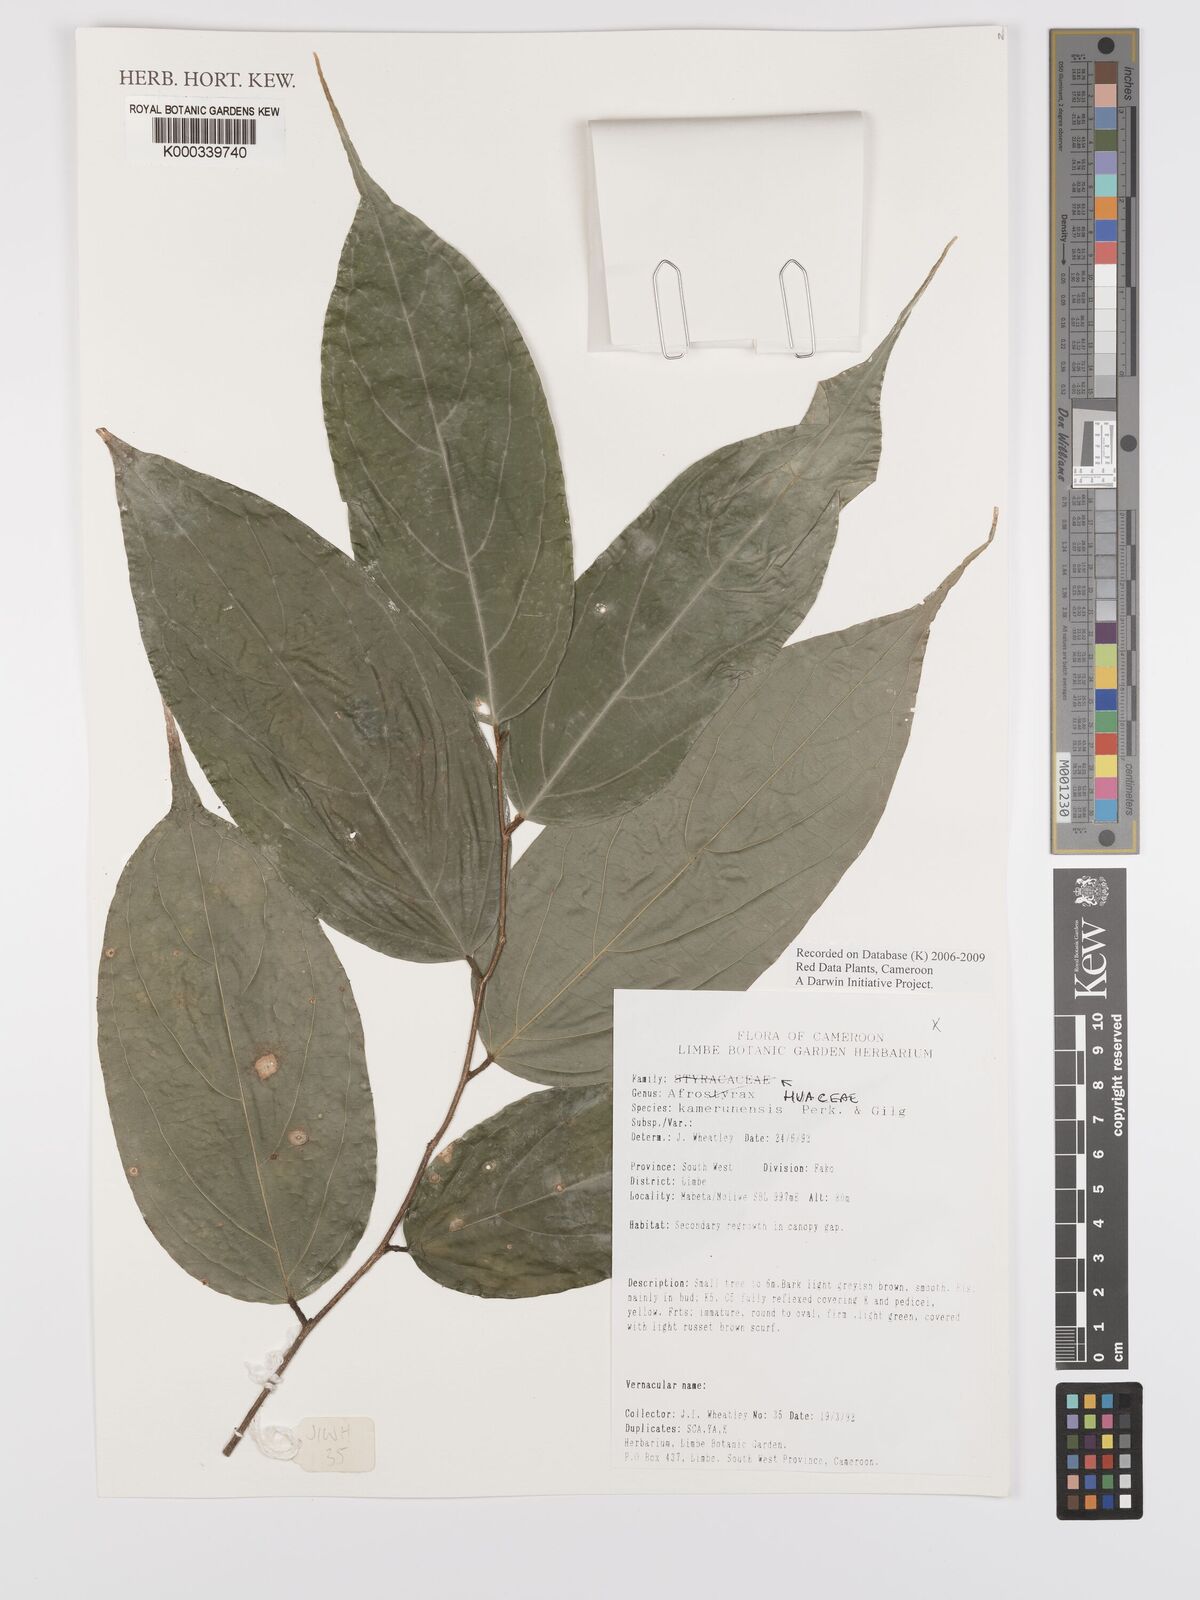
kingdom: Plantae
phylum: Tracheophyta
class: Magnoliopsida
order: Oxalidales
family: Huaceae
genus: Afrostyrax
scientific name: Afrostyrax kamerunensis
